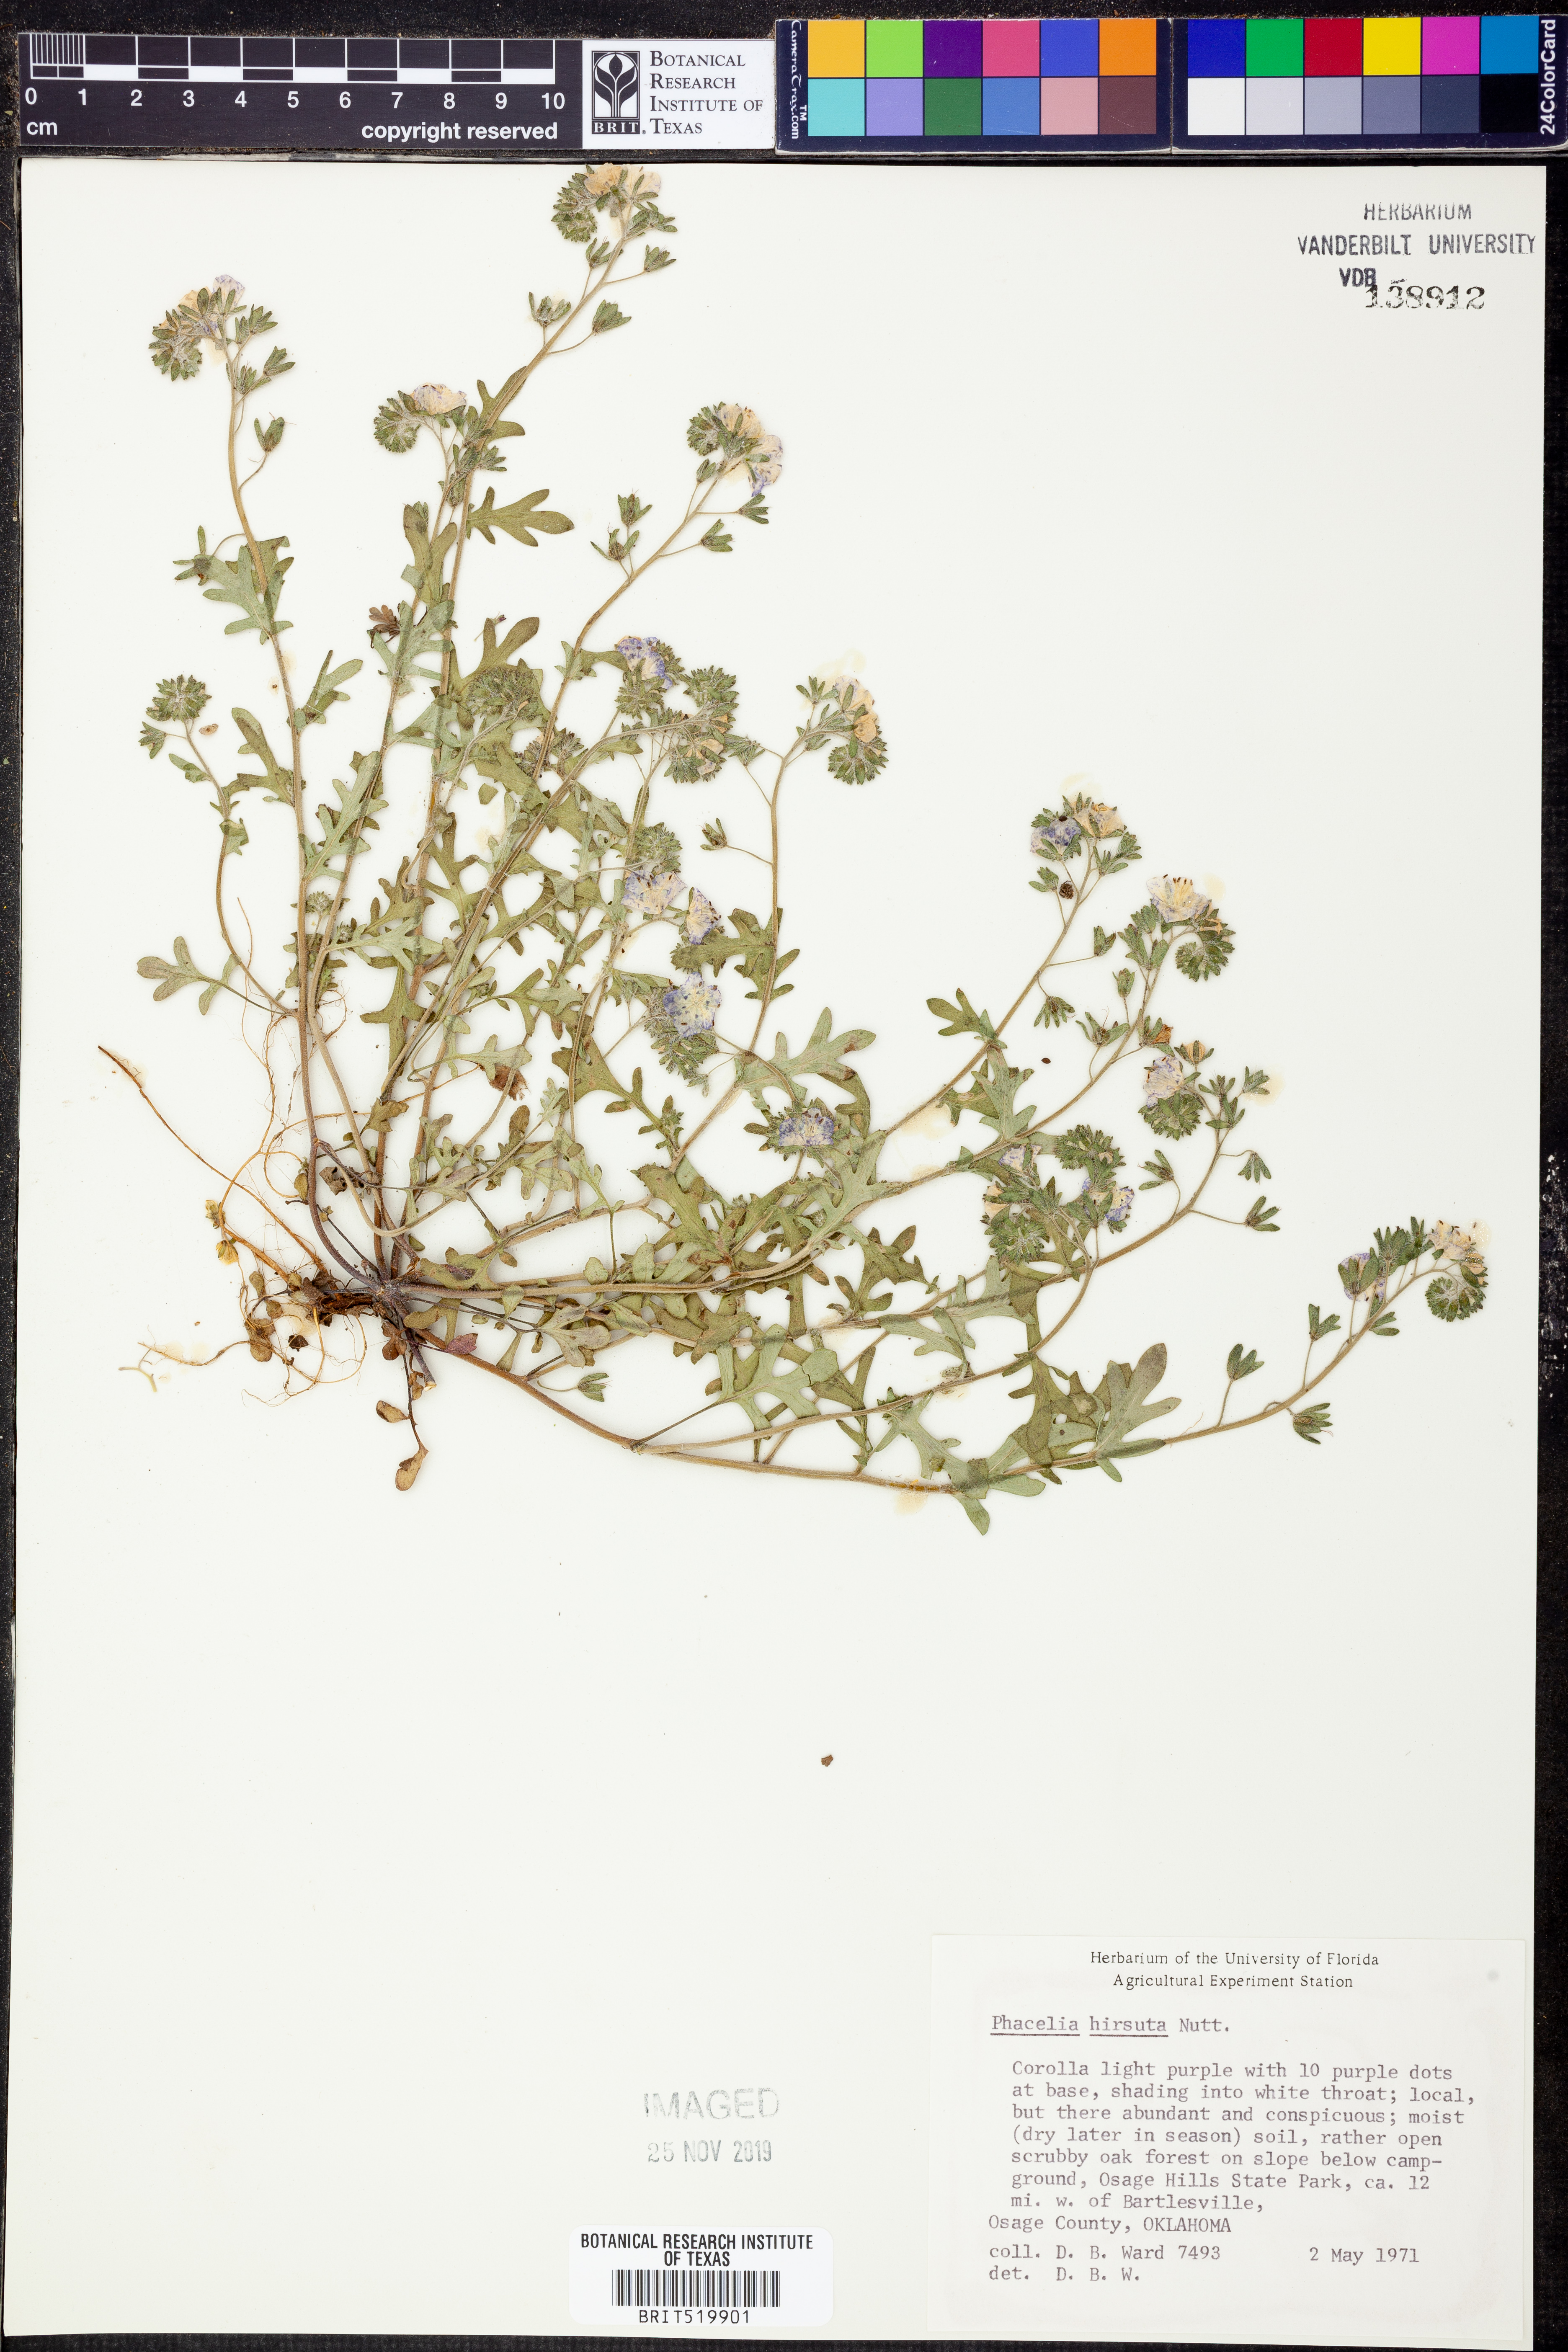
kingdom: Plantae
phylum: Tracheophyta
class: Magnoliopsida
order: Boraginales
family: Hydrophyllaceae
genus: Phacelia
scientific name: Phacelia hirsuta
